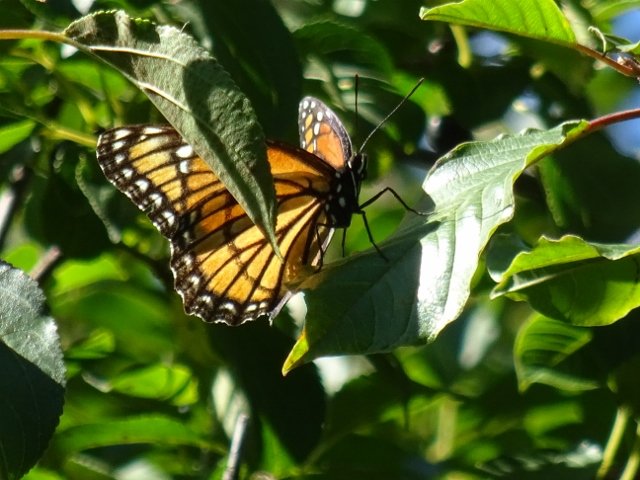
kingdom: Animalia
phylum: Arthropoda
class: Insecta
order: Lepidoptera
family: Nymphalidae
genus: Limenitis
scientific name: Limenitis archippus
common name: Viceroy
